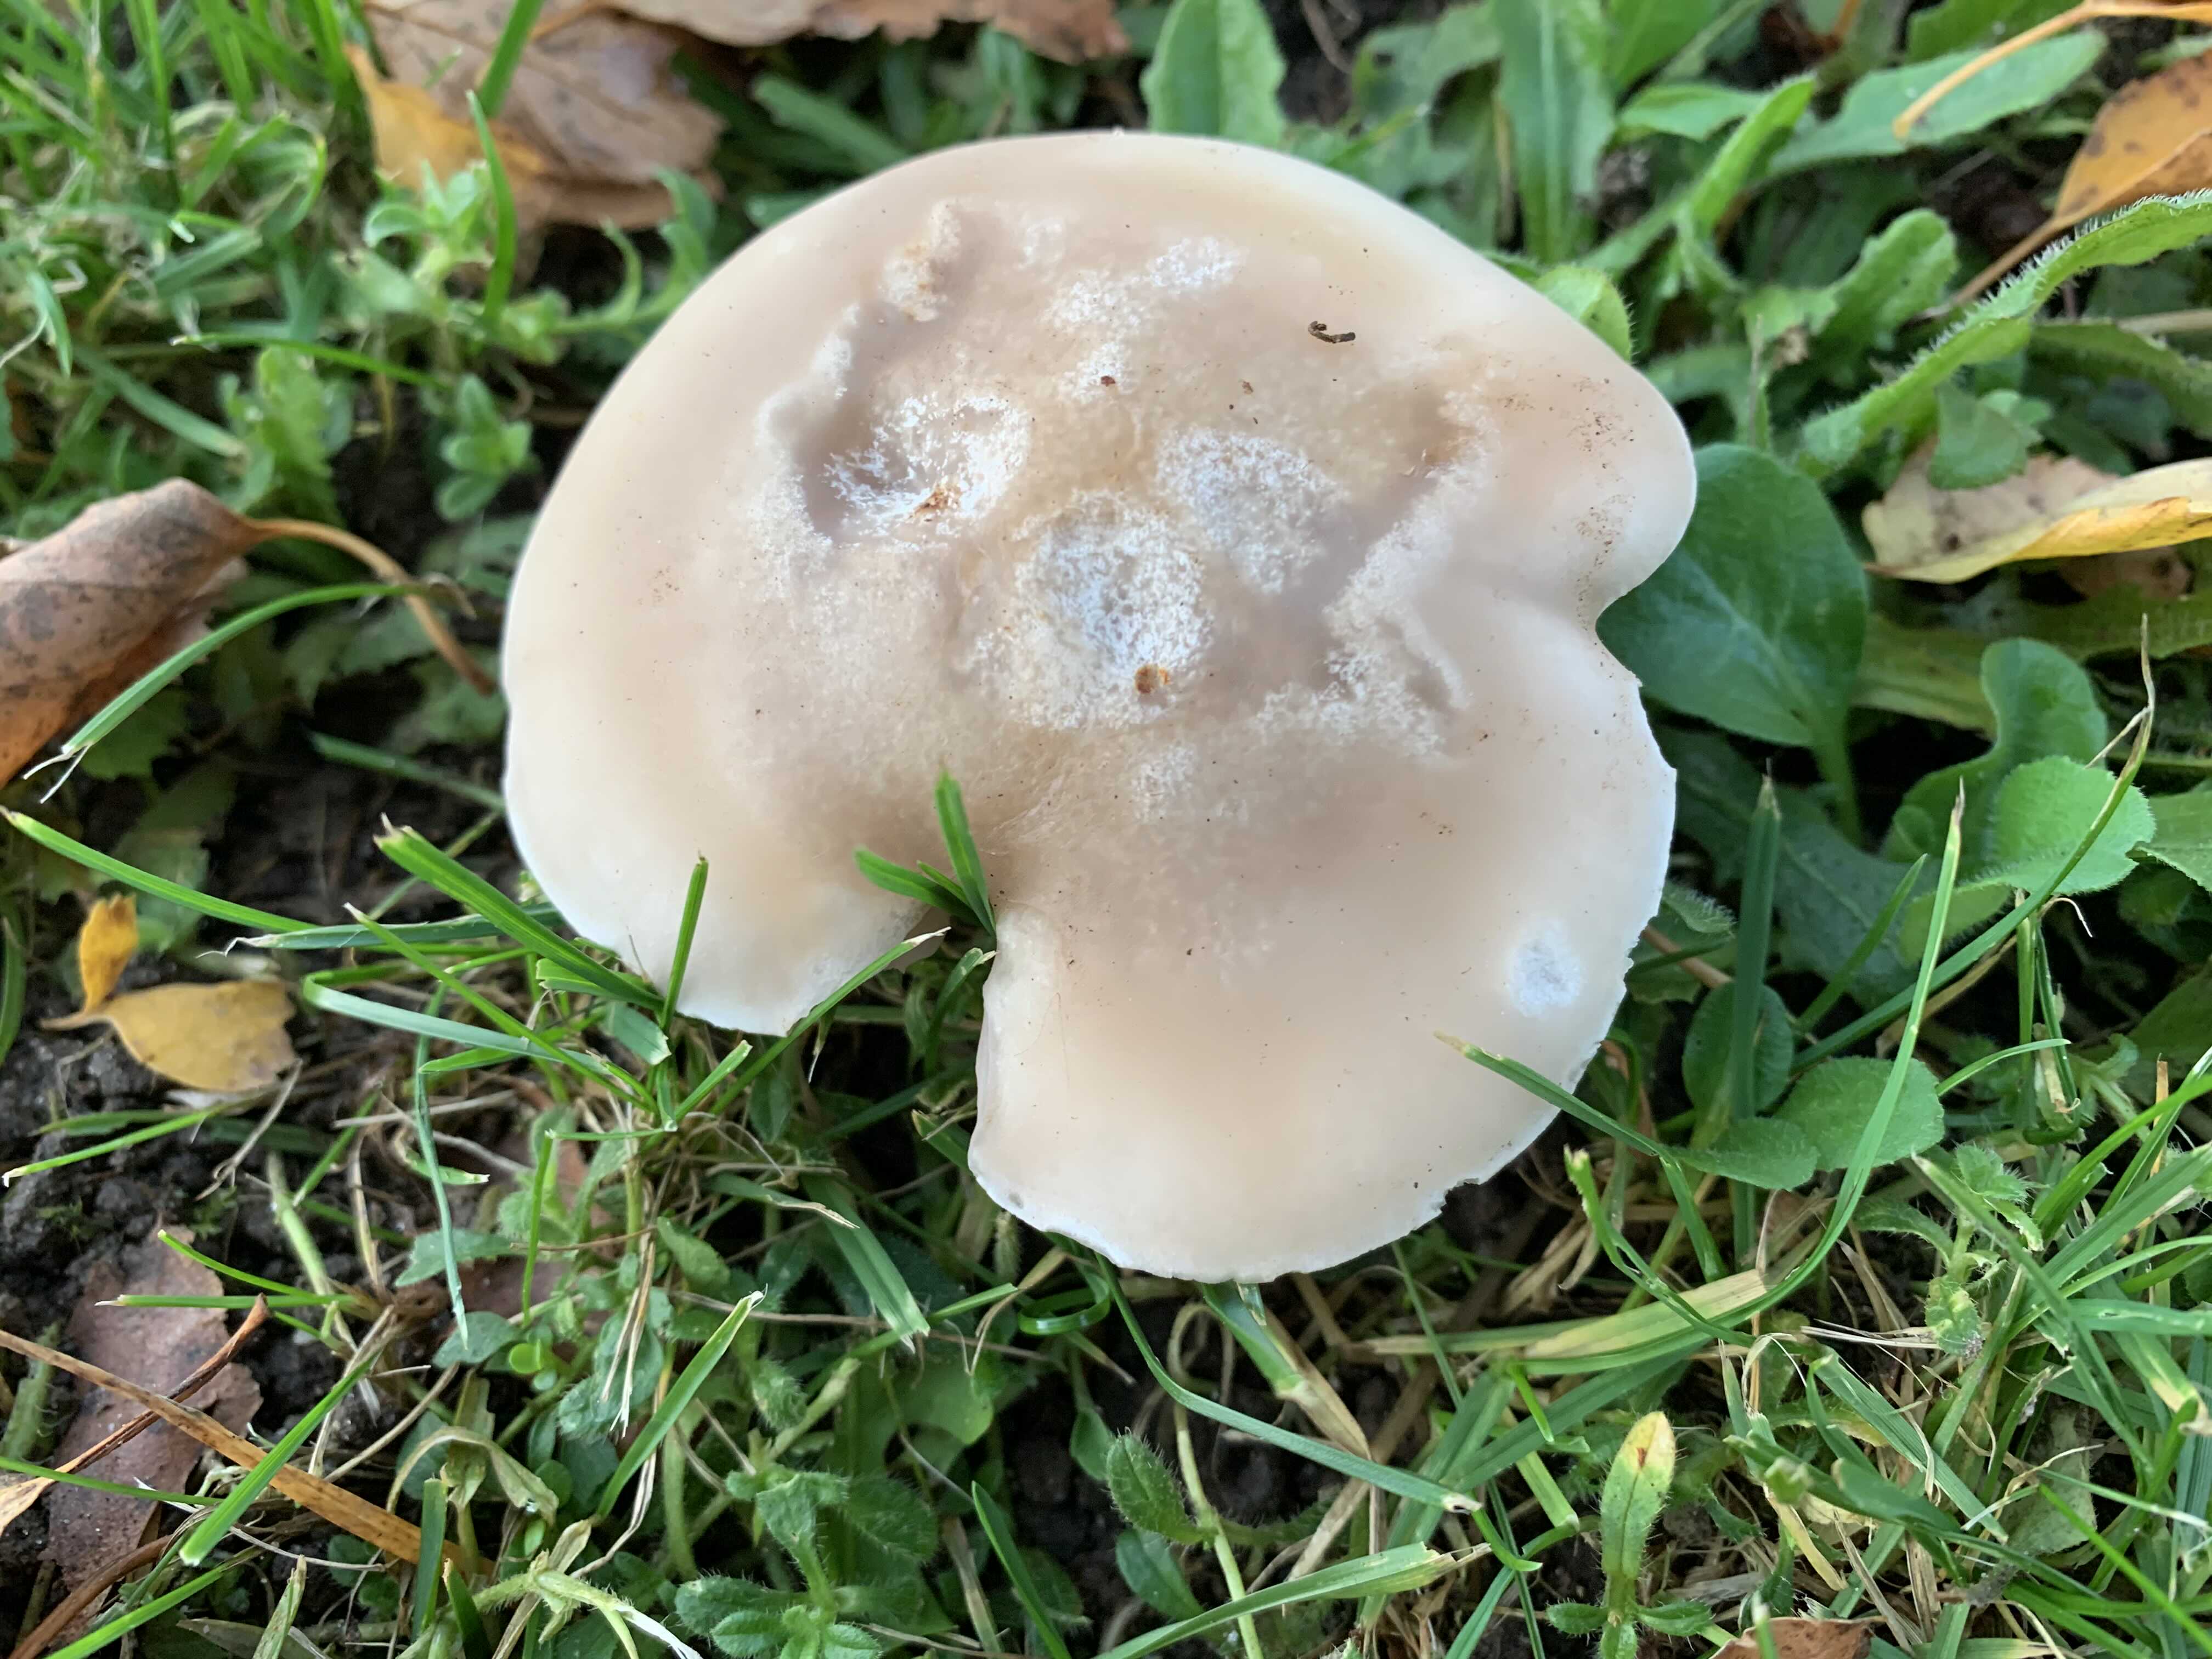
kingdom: Fungi
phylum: Basidiomycota
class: Agaricomycetes
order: Agaricales
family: Tricholomataceae
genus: Lepista
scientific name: Lepista personata
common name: bleg hekseringshat
